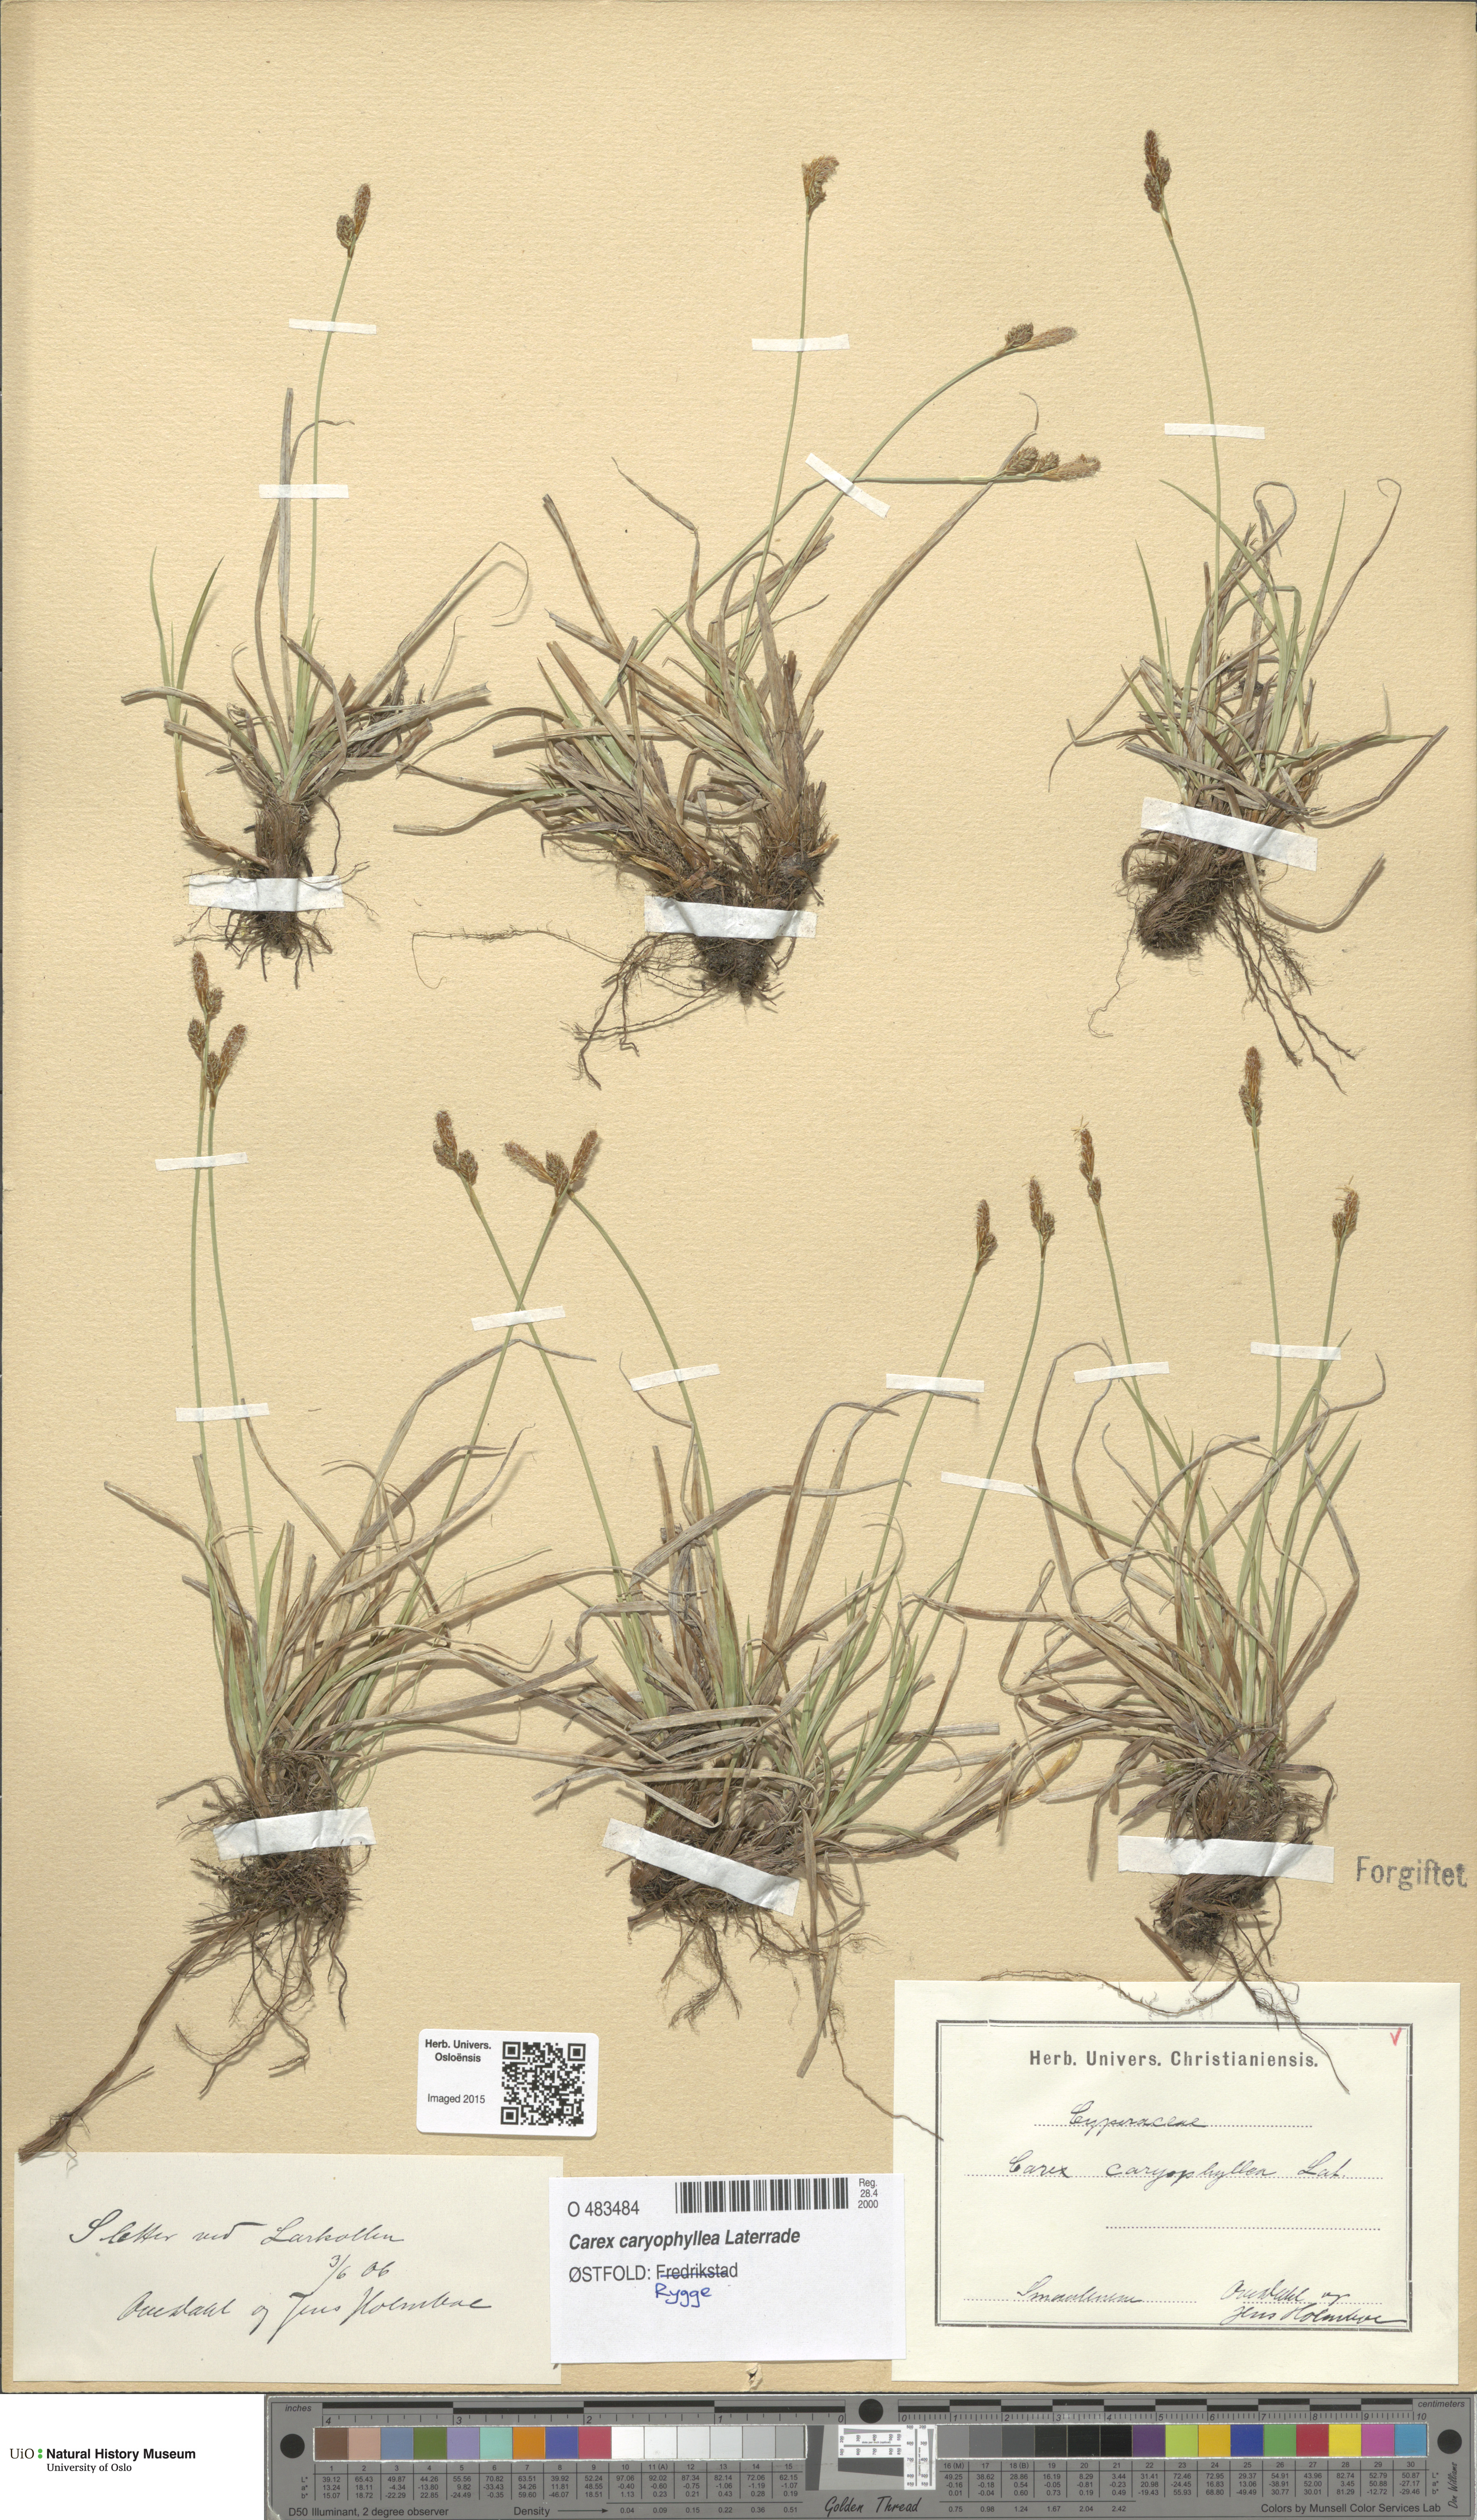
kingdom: Plantae
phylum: Tracheophyta
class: Liliopsida
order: Poales
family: Cyperaceae
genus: Carex
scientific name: Carex caryophyllea
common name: Spring sedge
